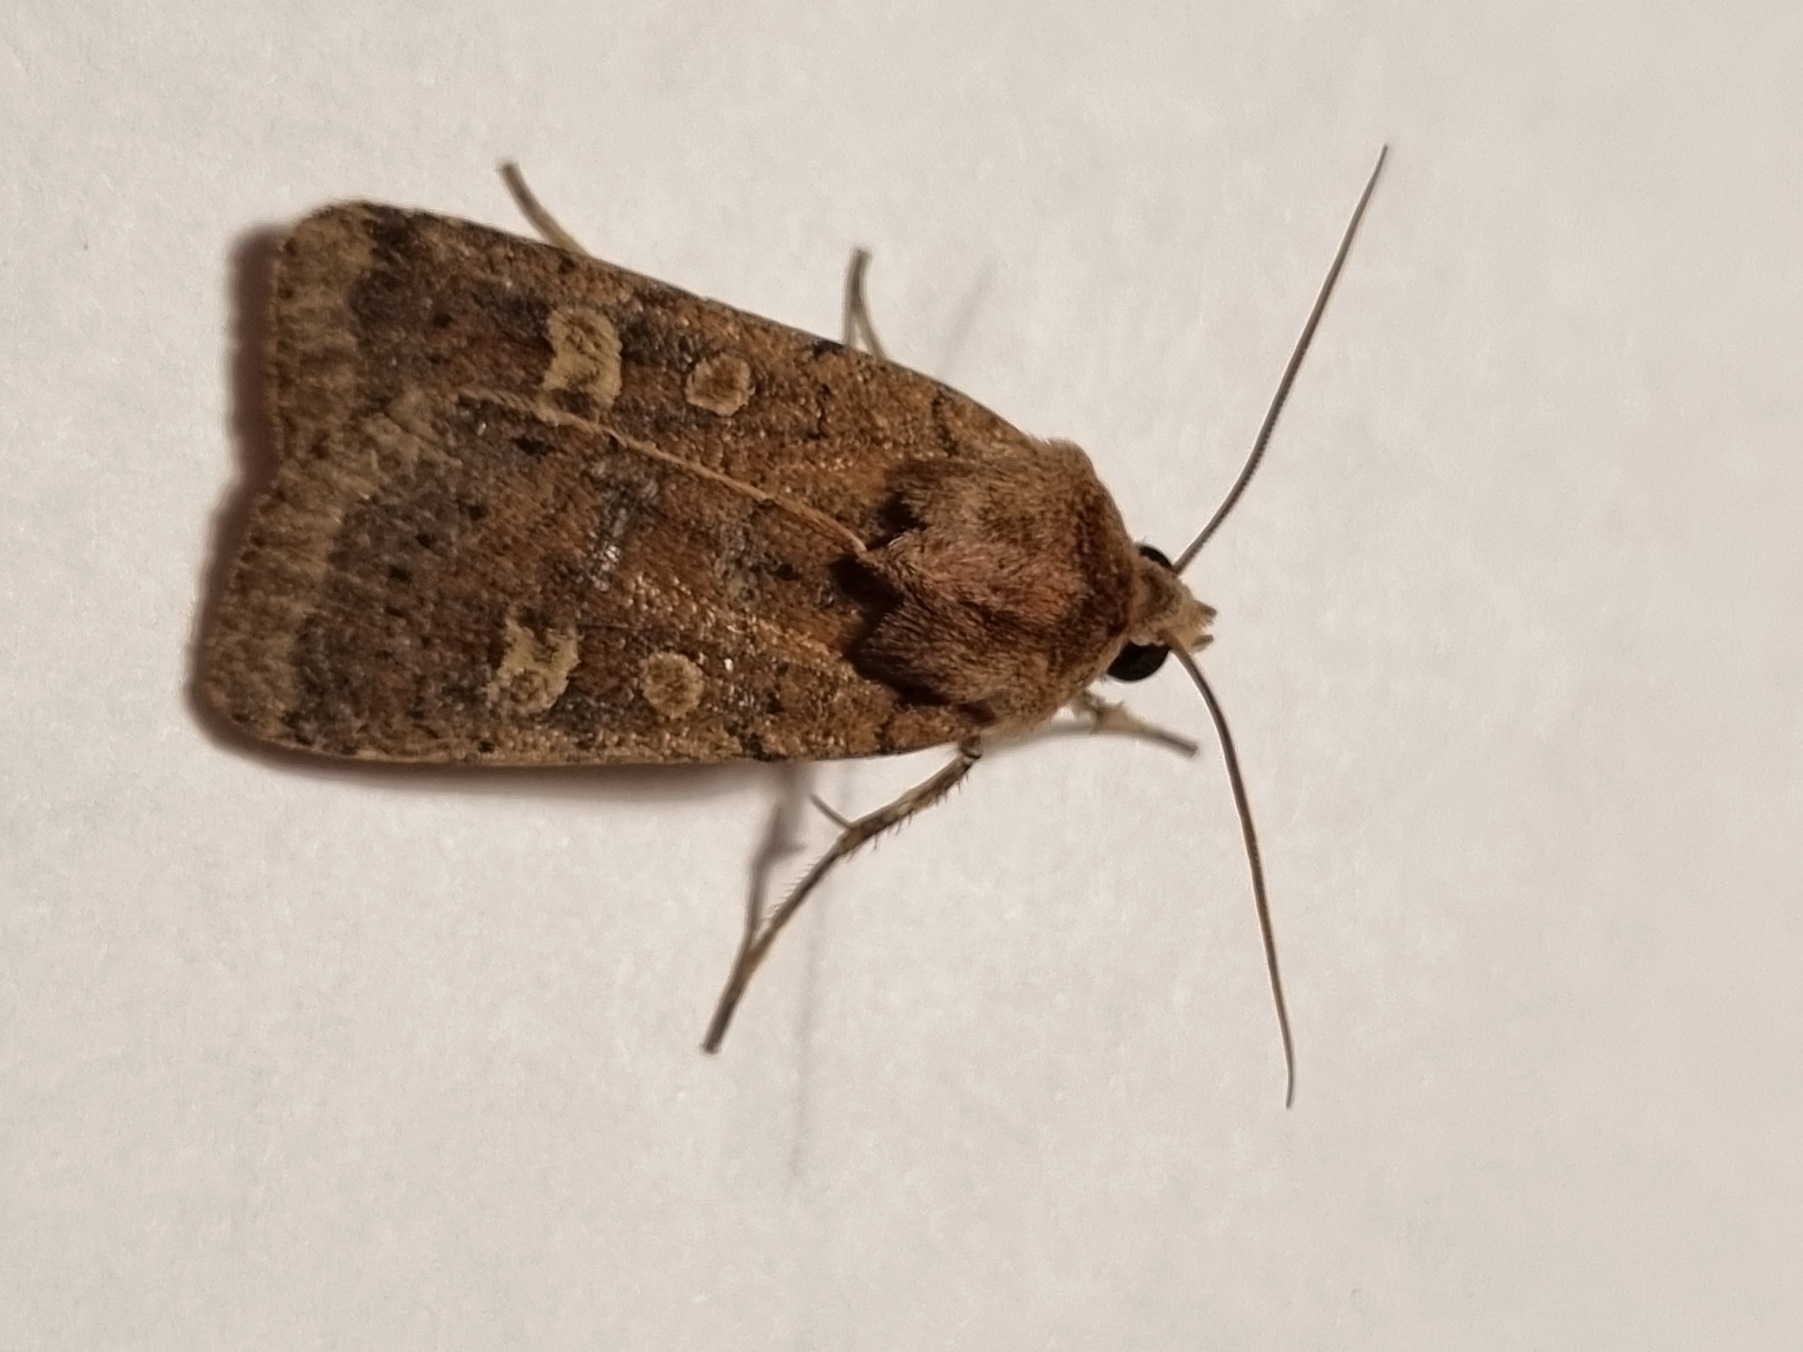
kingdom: Animalia
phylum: Arthropoda
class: Insecta
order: Lepidoptera
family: Noctuidae
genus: Xestia
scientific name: Xestia xanthographa
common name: Gulmærket glansugle
